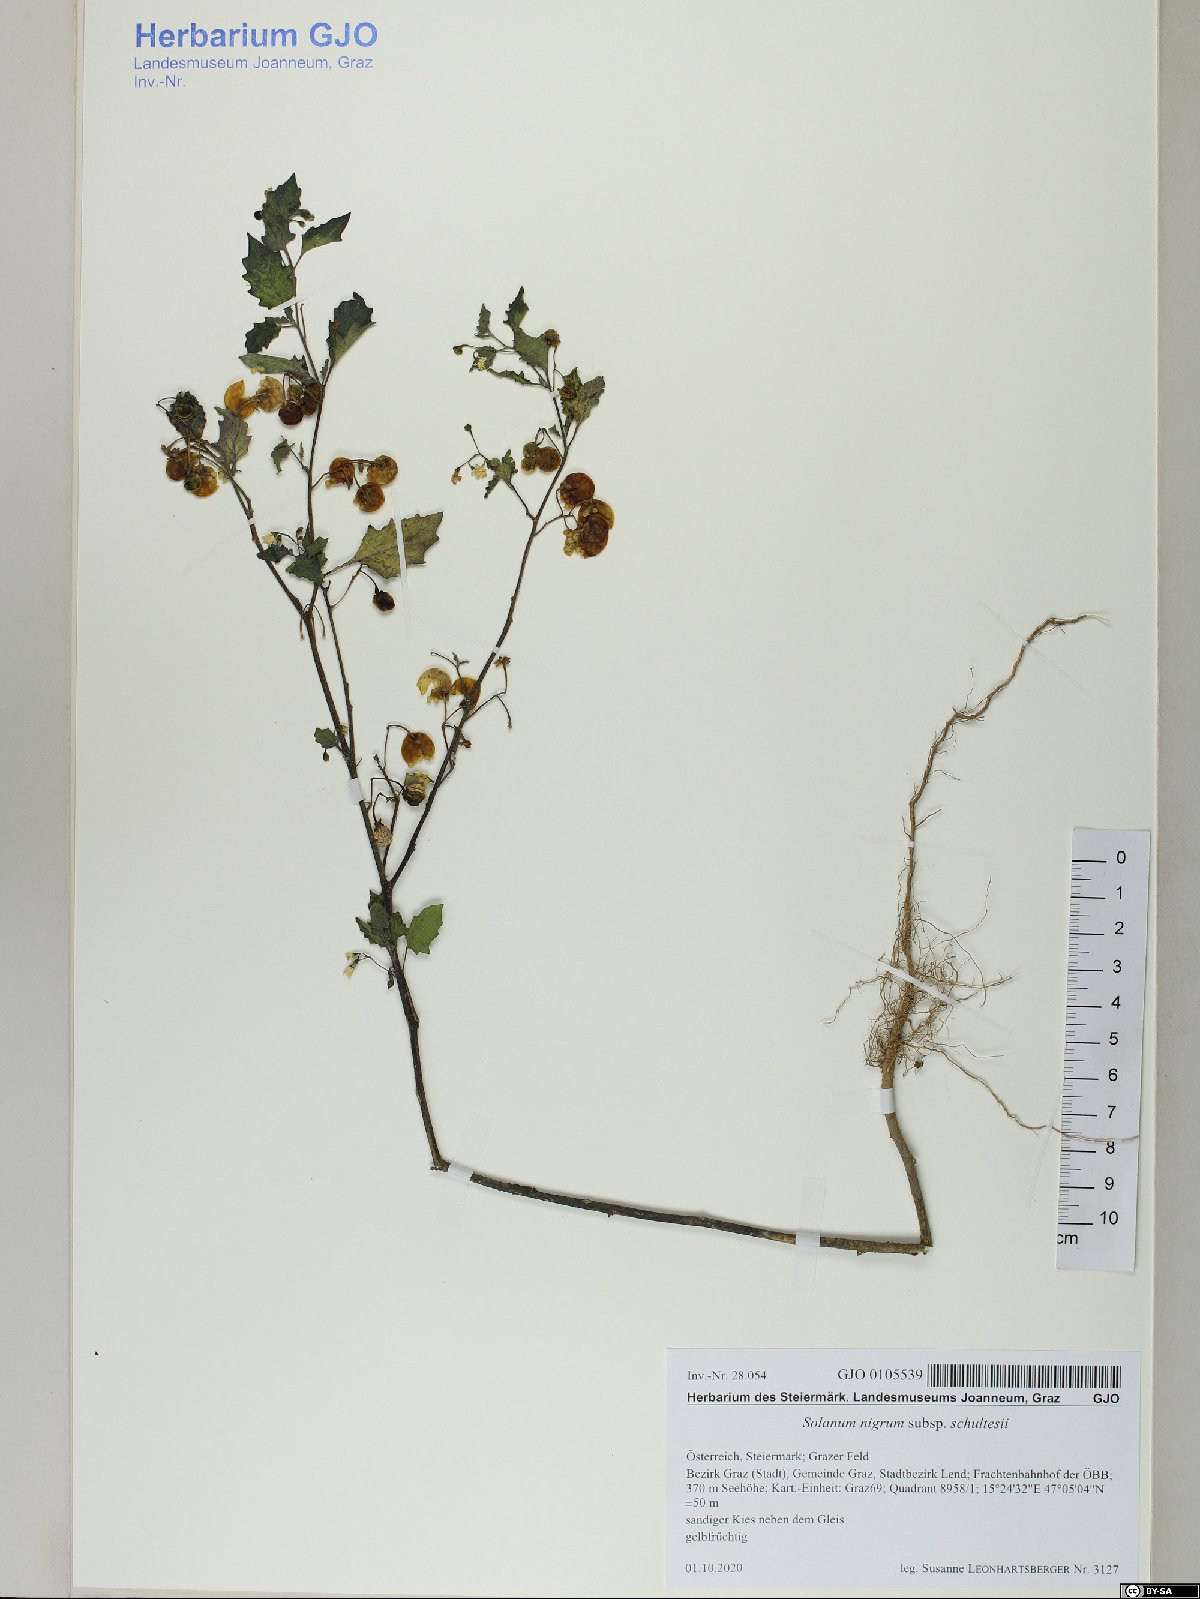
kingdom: Plantae
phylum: Tracheophyta
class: Magnoliopsida
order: Solanales
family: Solanaceae
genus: Solanum
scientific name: Solanum decipiens
